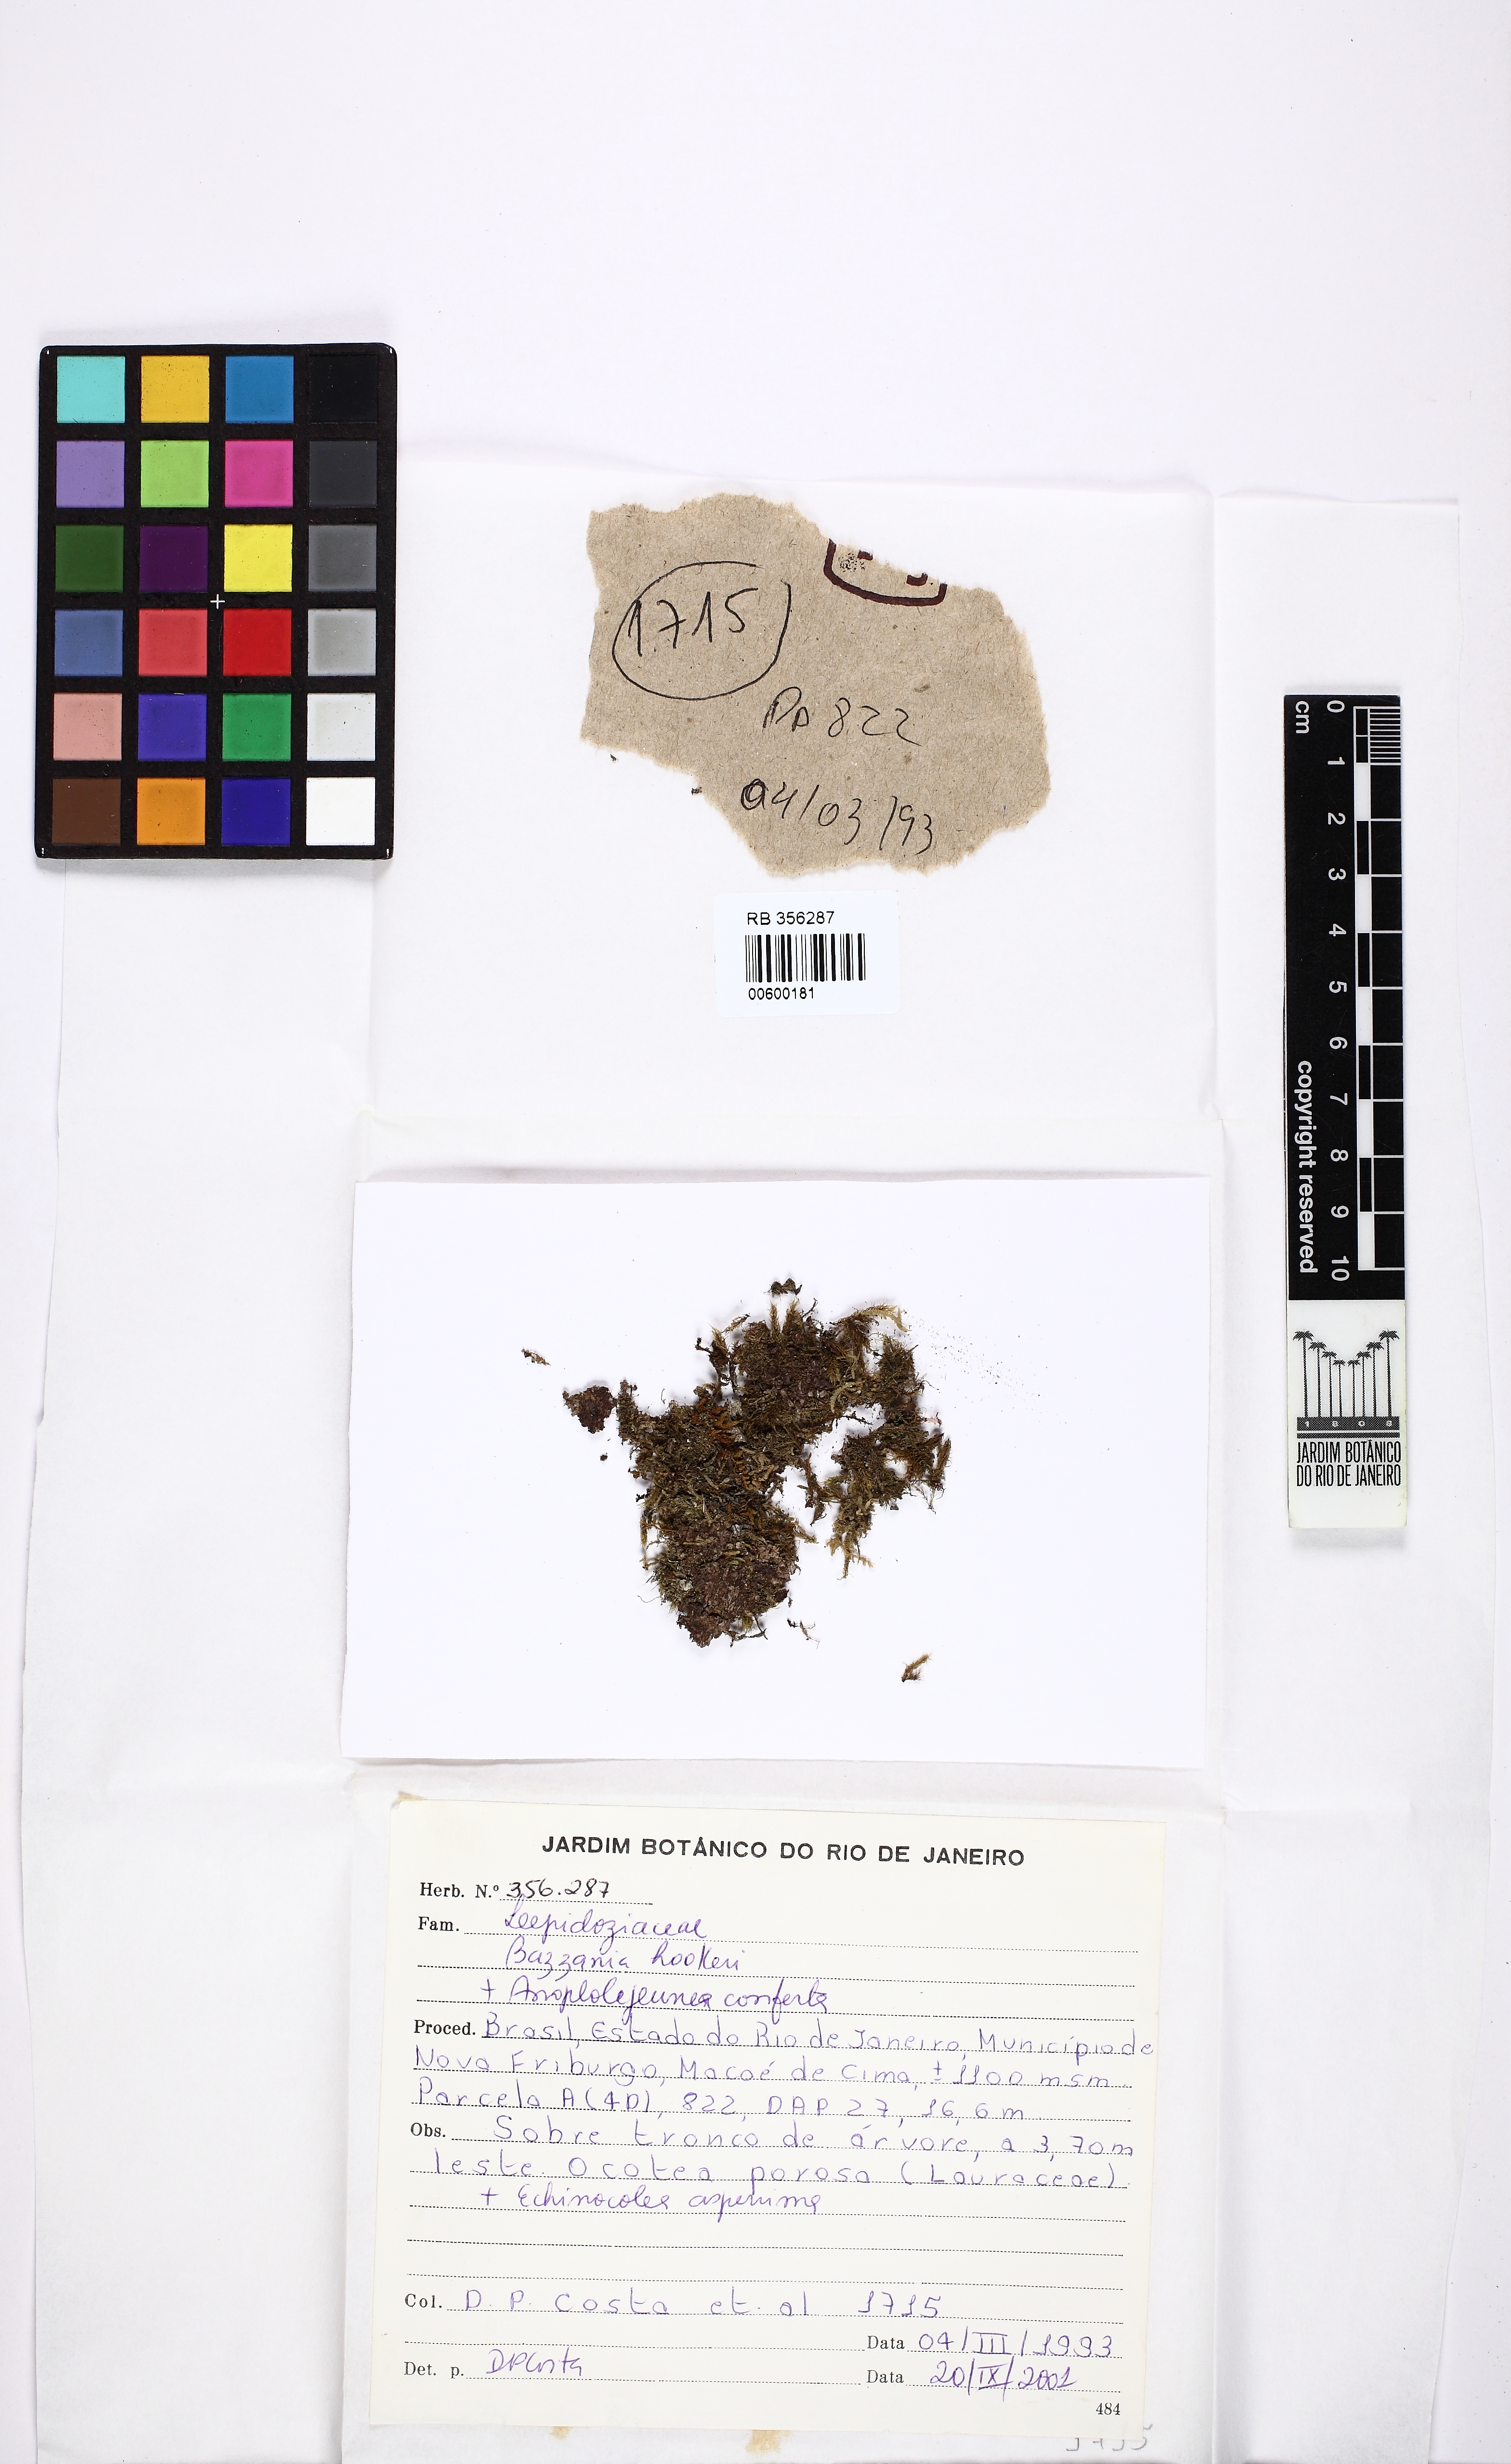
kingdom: Plantae
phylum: Marchantiophyta
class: Jungermanniopsida
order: Jungermanniales
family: Lepidoziaceae
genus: Bazzania
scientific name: Bazzania hookeri
